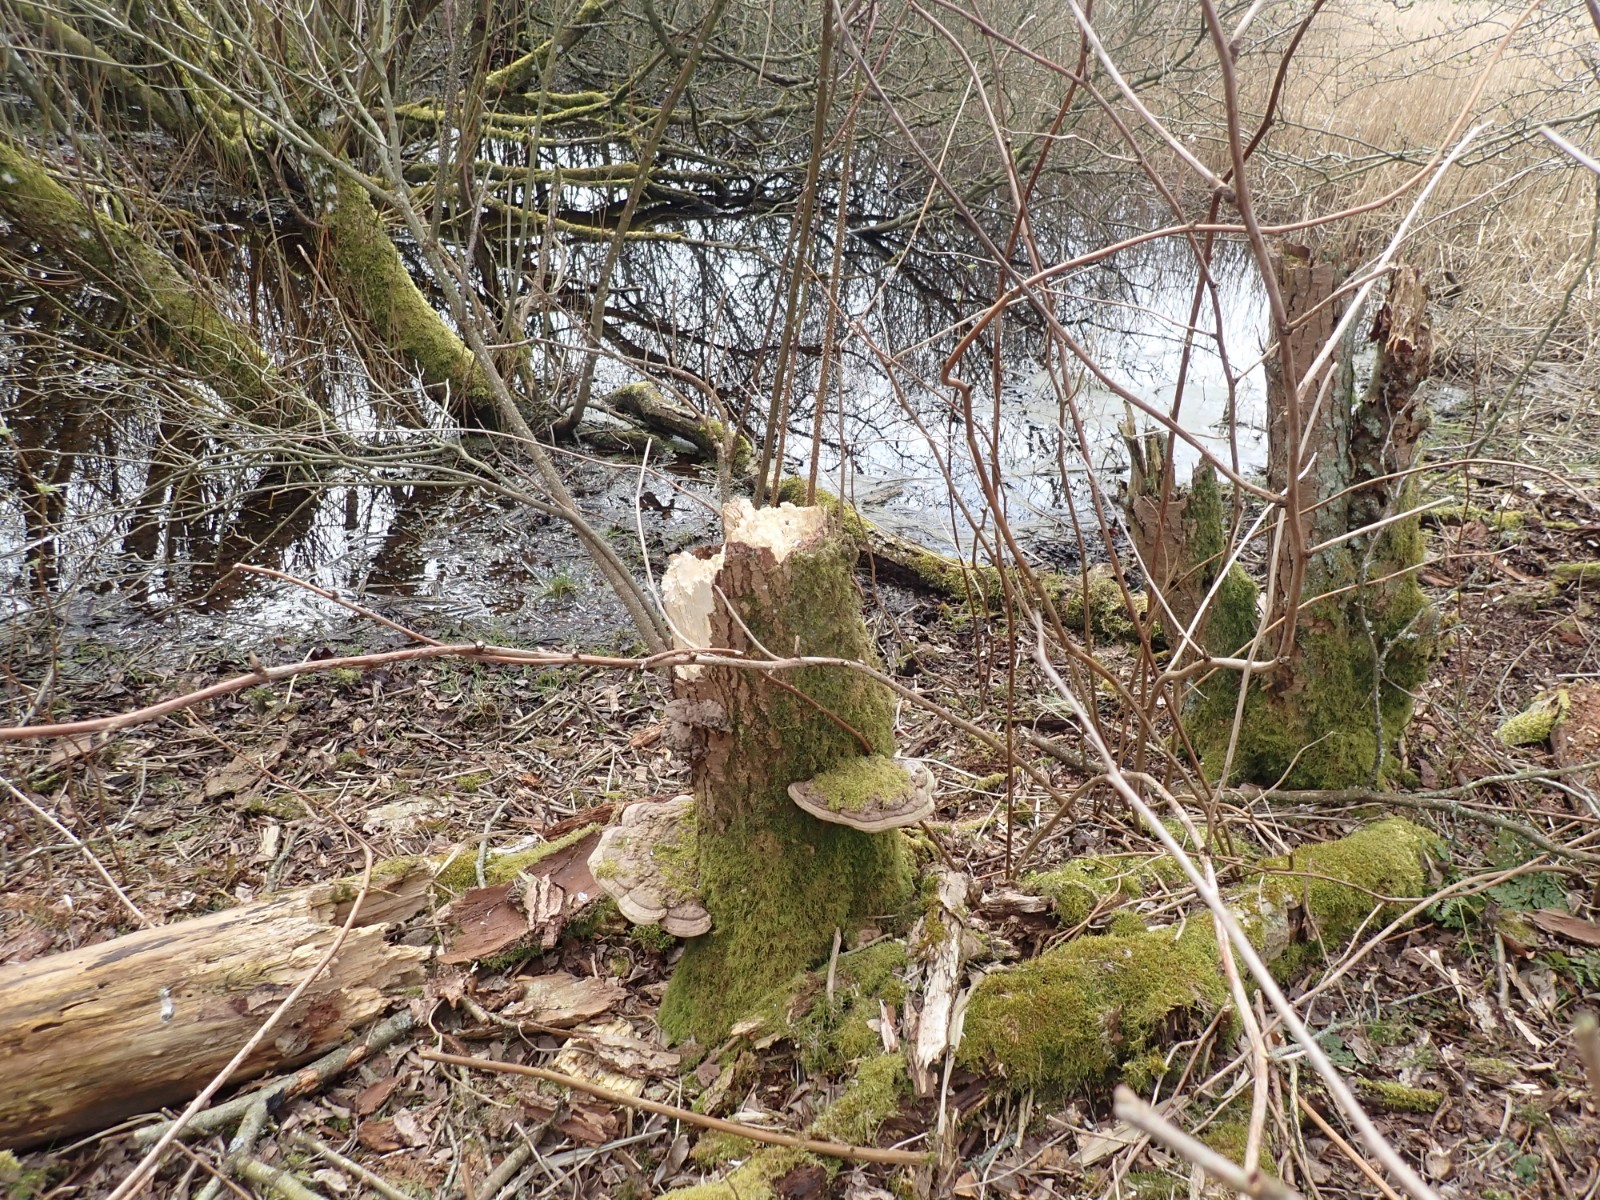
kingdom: Fungi
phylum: Basidiomycota
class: Agaricomycetes
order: Polyporales
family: Polyporaceae
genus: Ganoderma
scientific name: Ganoderma applanatum
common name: flad lakporesvamp
